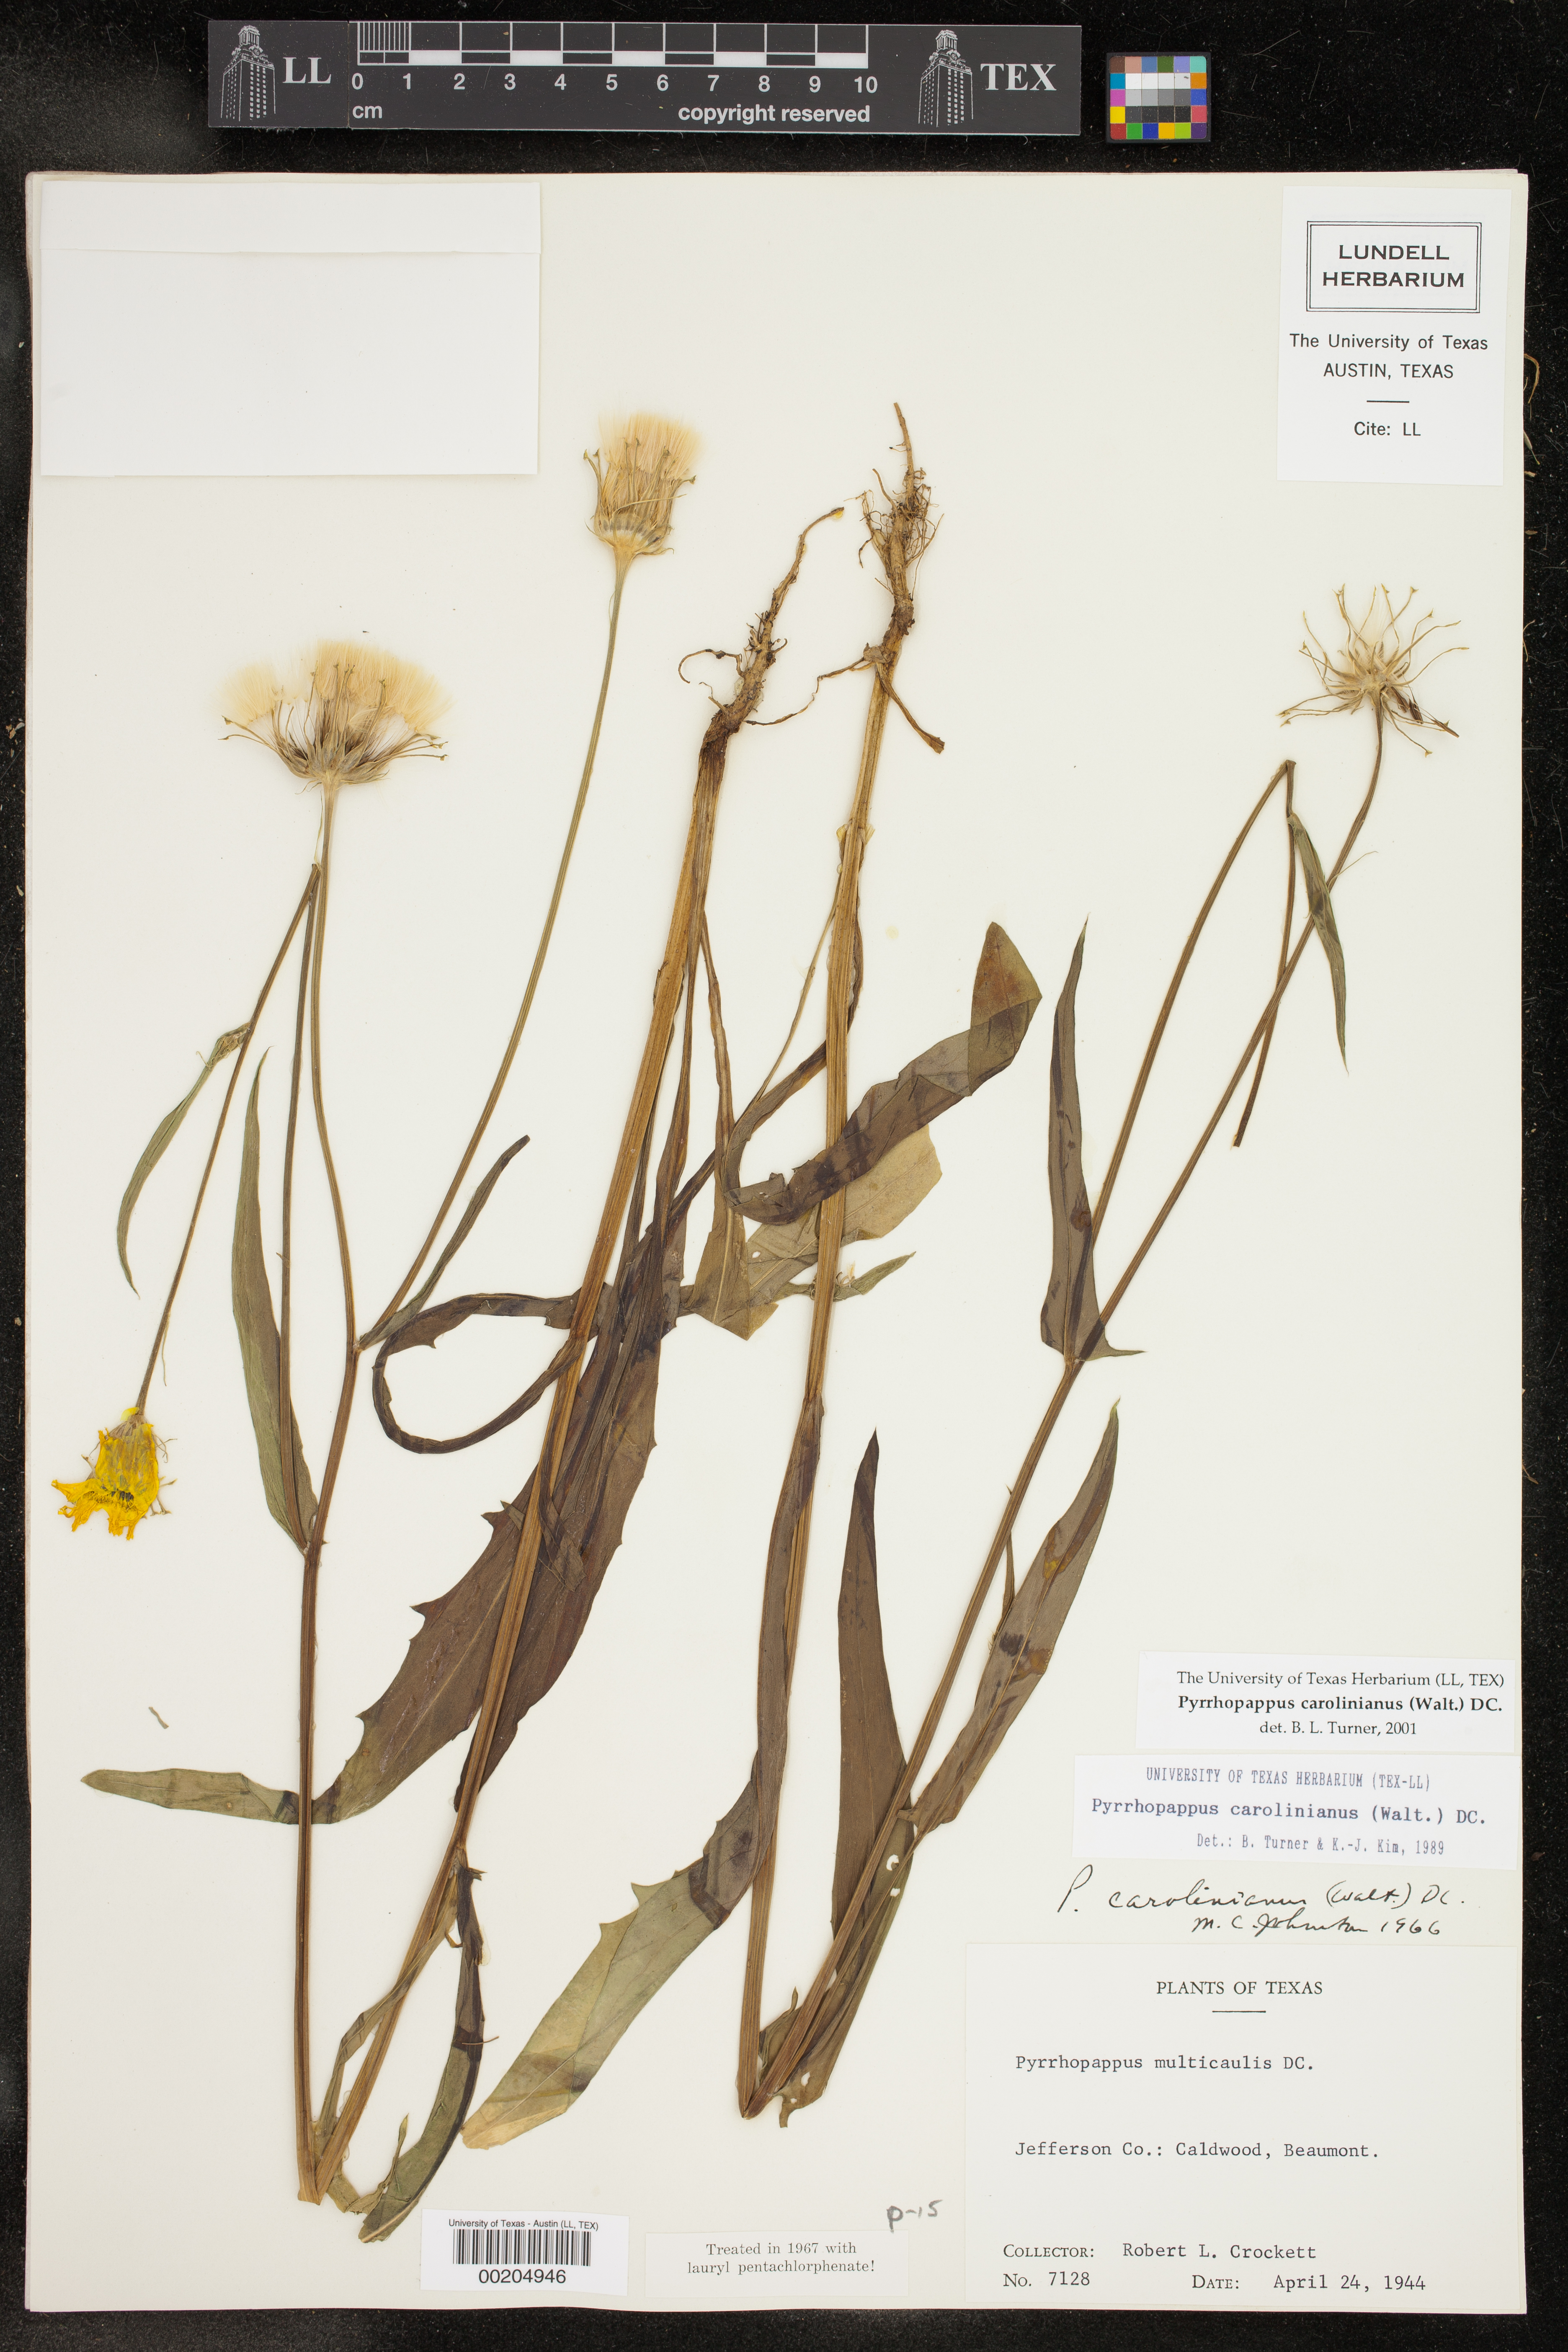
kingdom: Plantae
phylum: Tracheophyta
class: Magnoliopsida
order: Asterales
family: Asteraceae
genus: Pyrrhopappus
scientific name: Pyrrhopappus carolinianus
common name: Carolina desert-chicory
